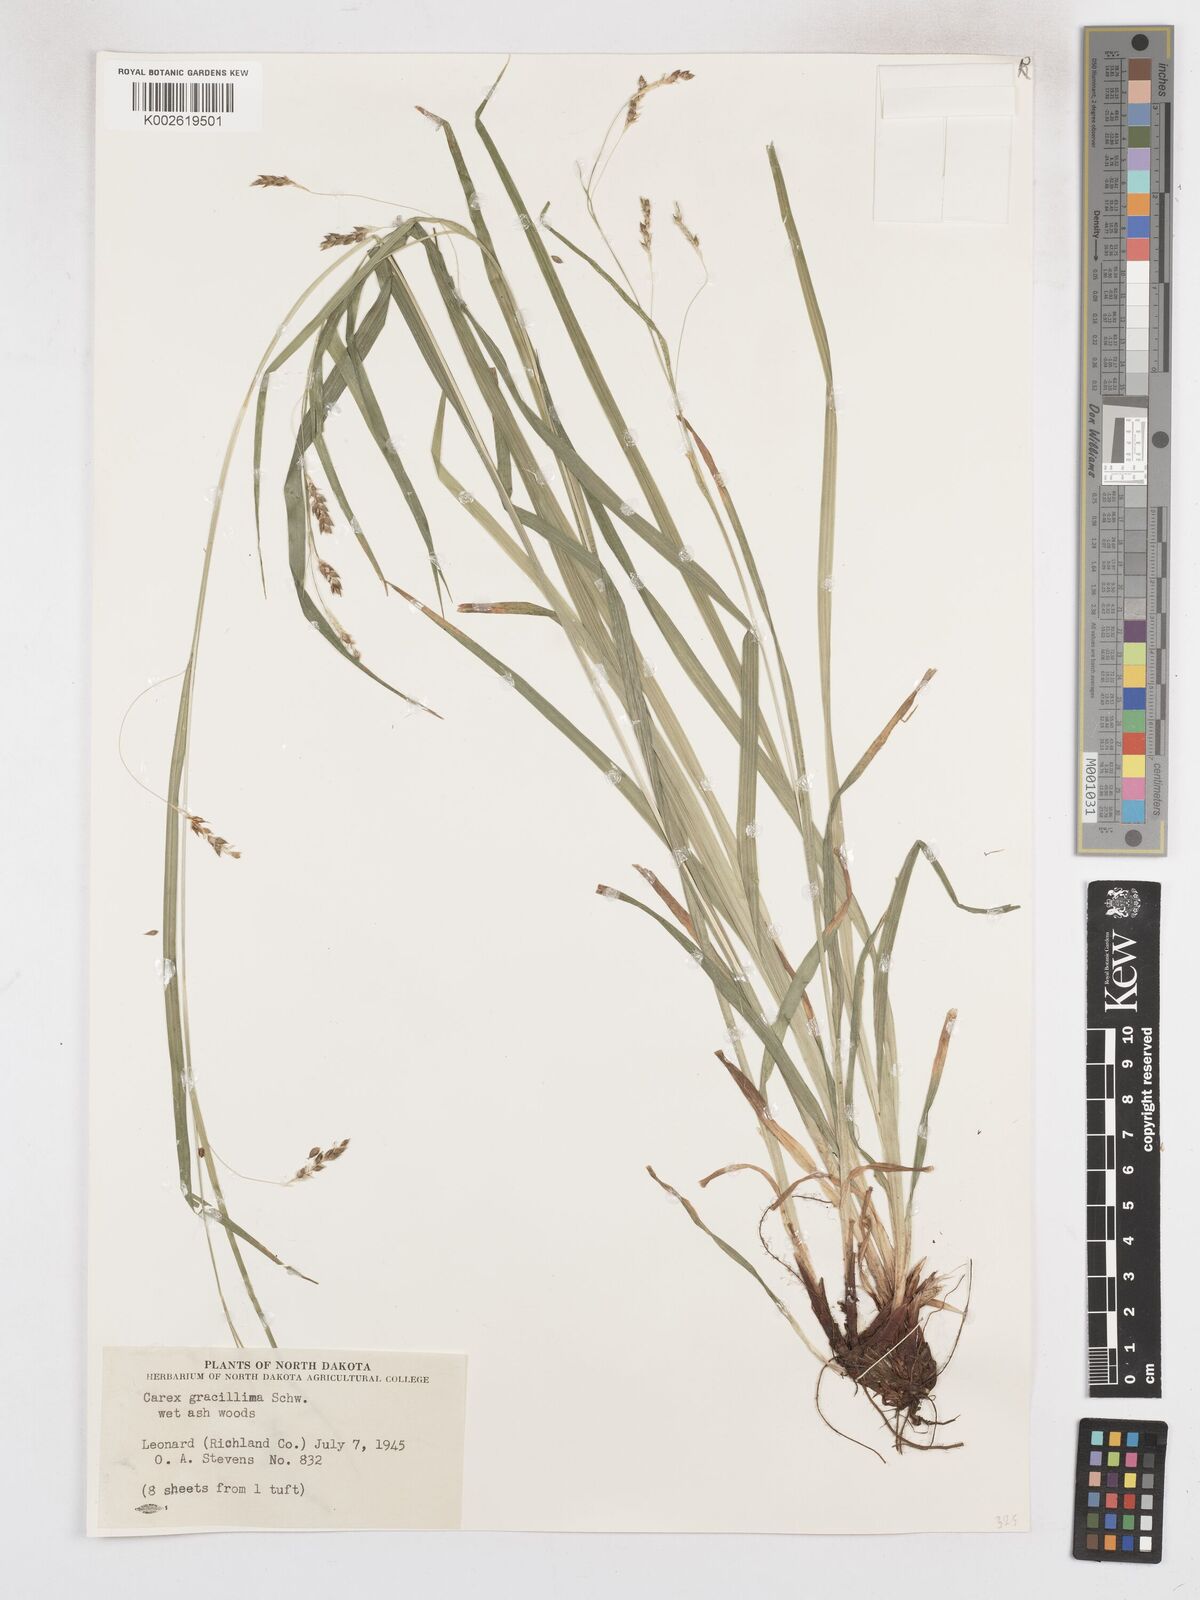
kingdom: Plantae
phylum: Tracheophyta
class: Liliopsida
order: Poales
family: Cyperaceae
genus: Carex
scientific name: Carex gracillima
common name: Graceful sedge
